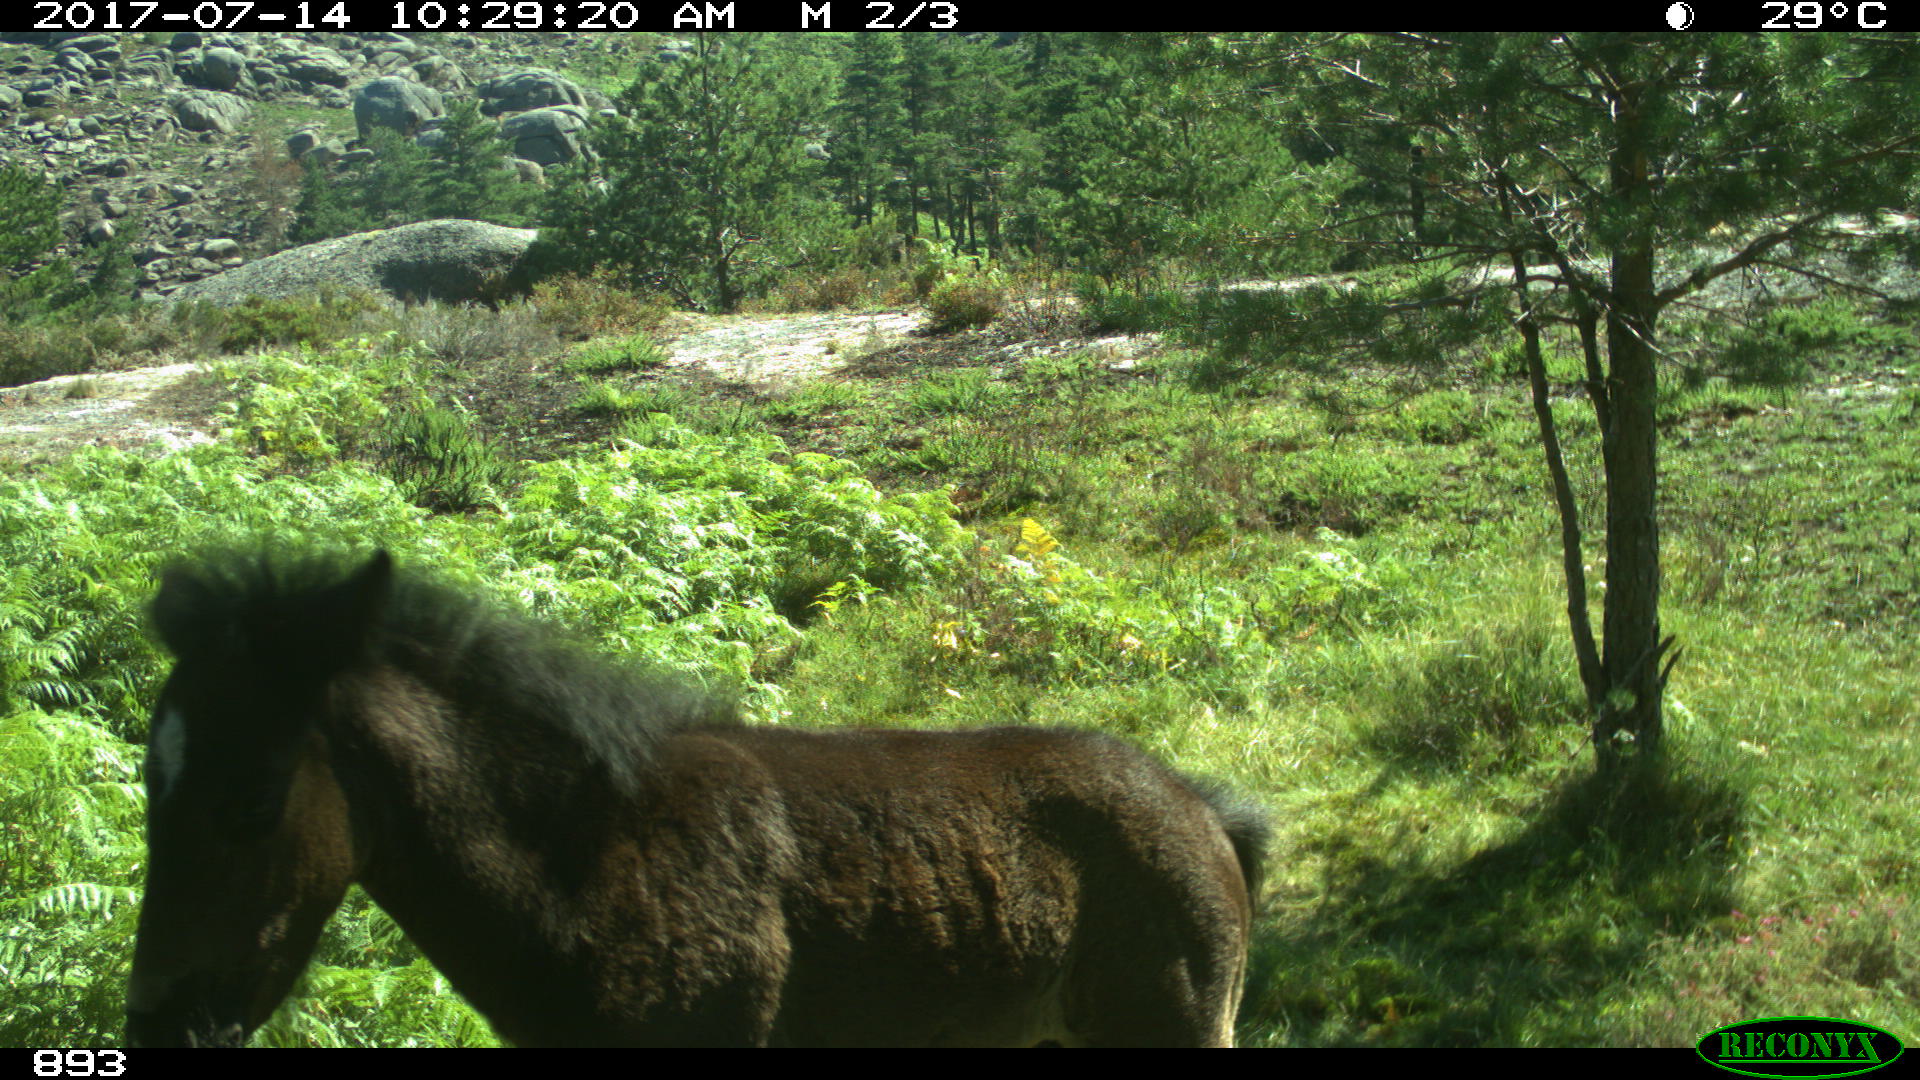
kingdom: Animalia
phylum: Chordata
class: Mammalia
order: Perissodactyla
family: Equidae
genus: Equus
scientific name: Equus caballus
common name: Horse
